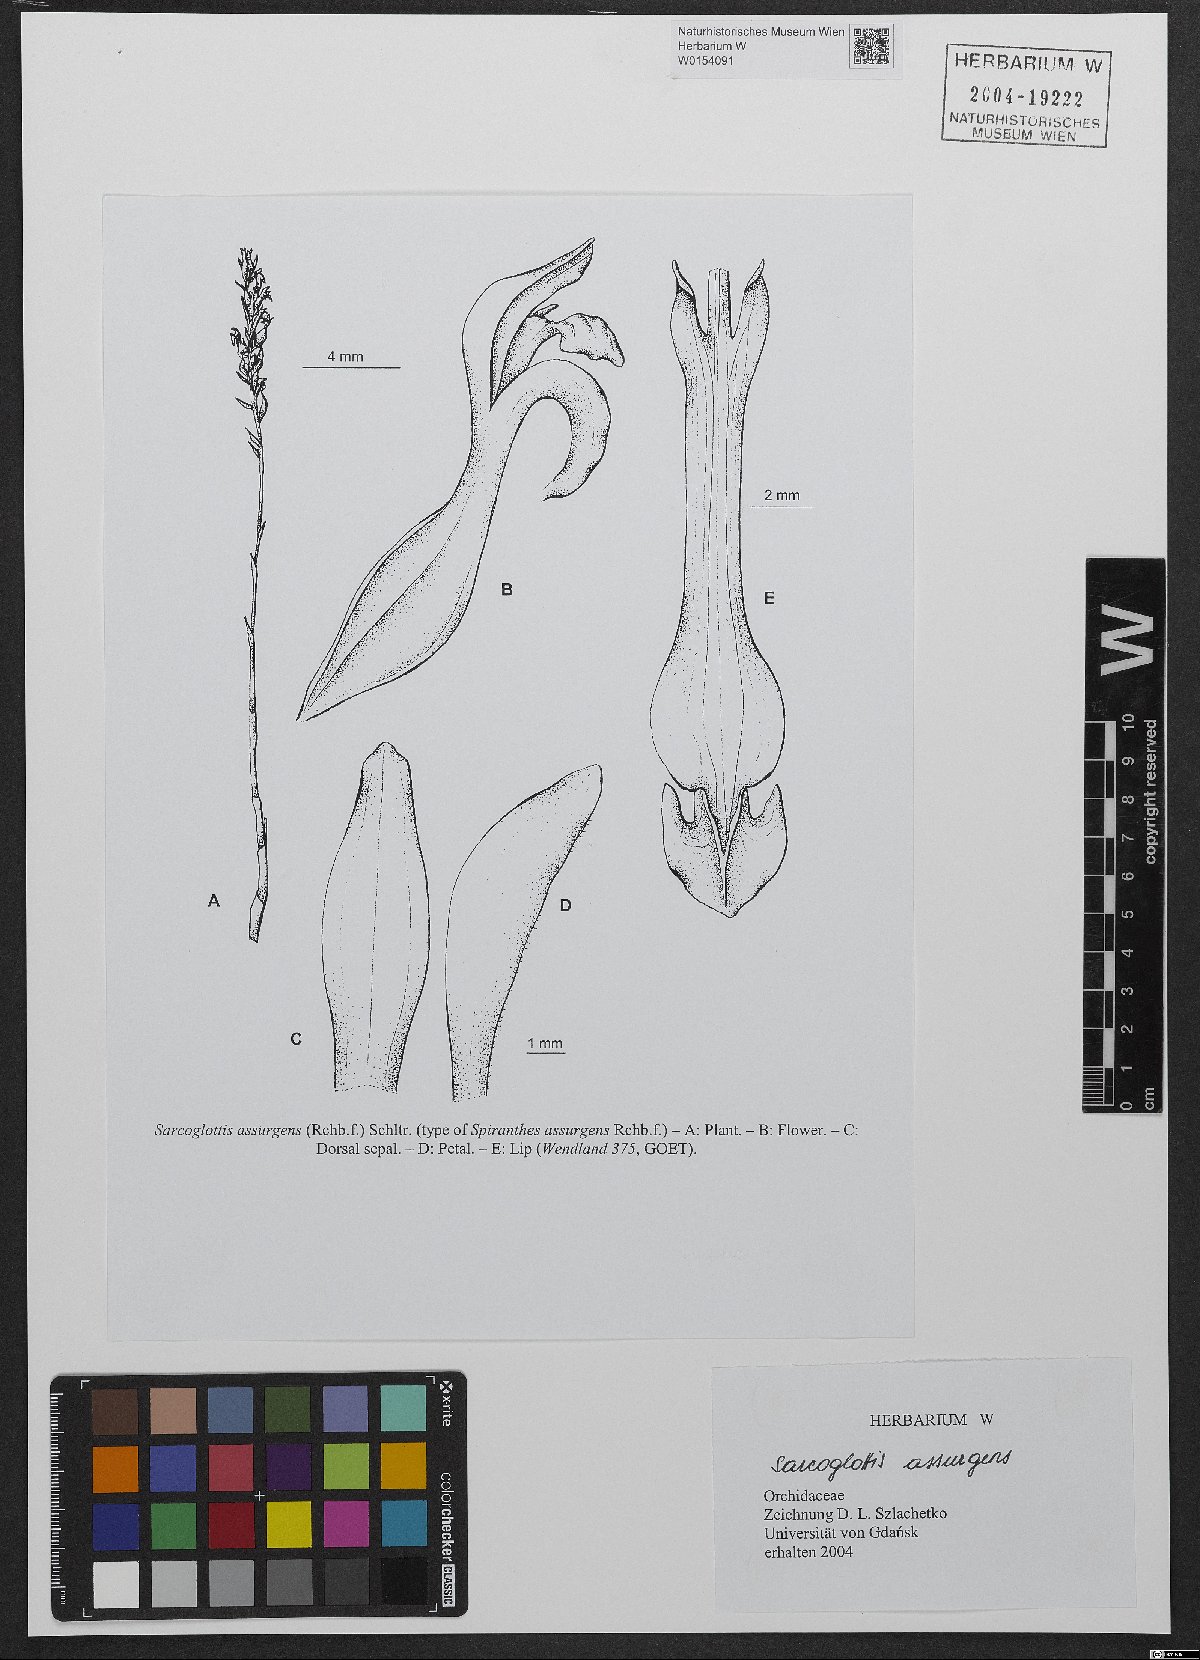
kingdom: Plantae
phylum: Tracheophyta
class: Liliopsida
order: Asparagales
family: Orchidaceae
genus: Sarcoglottis
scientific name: Sarcoglottis assurgens
